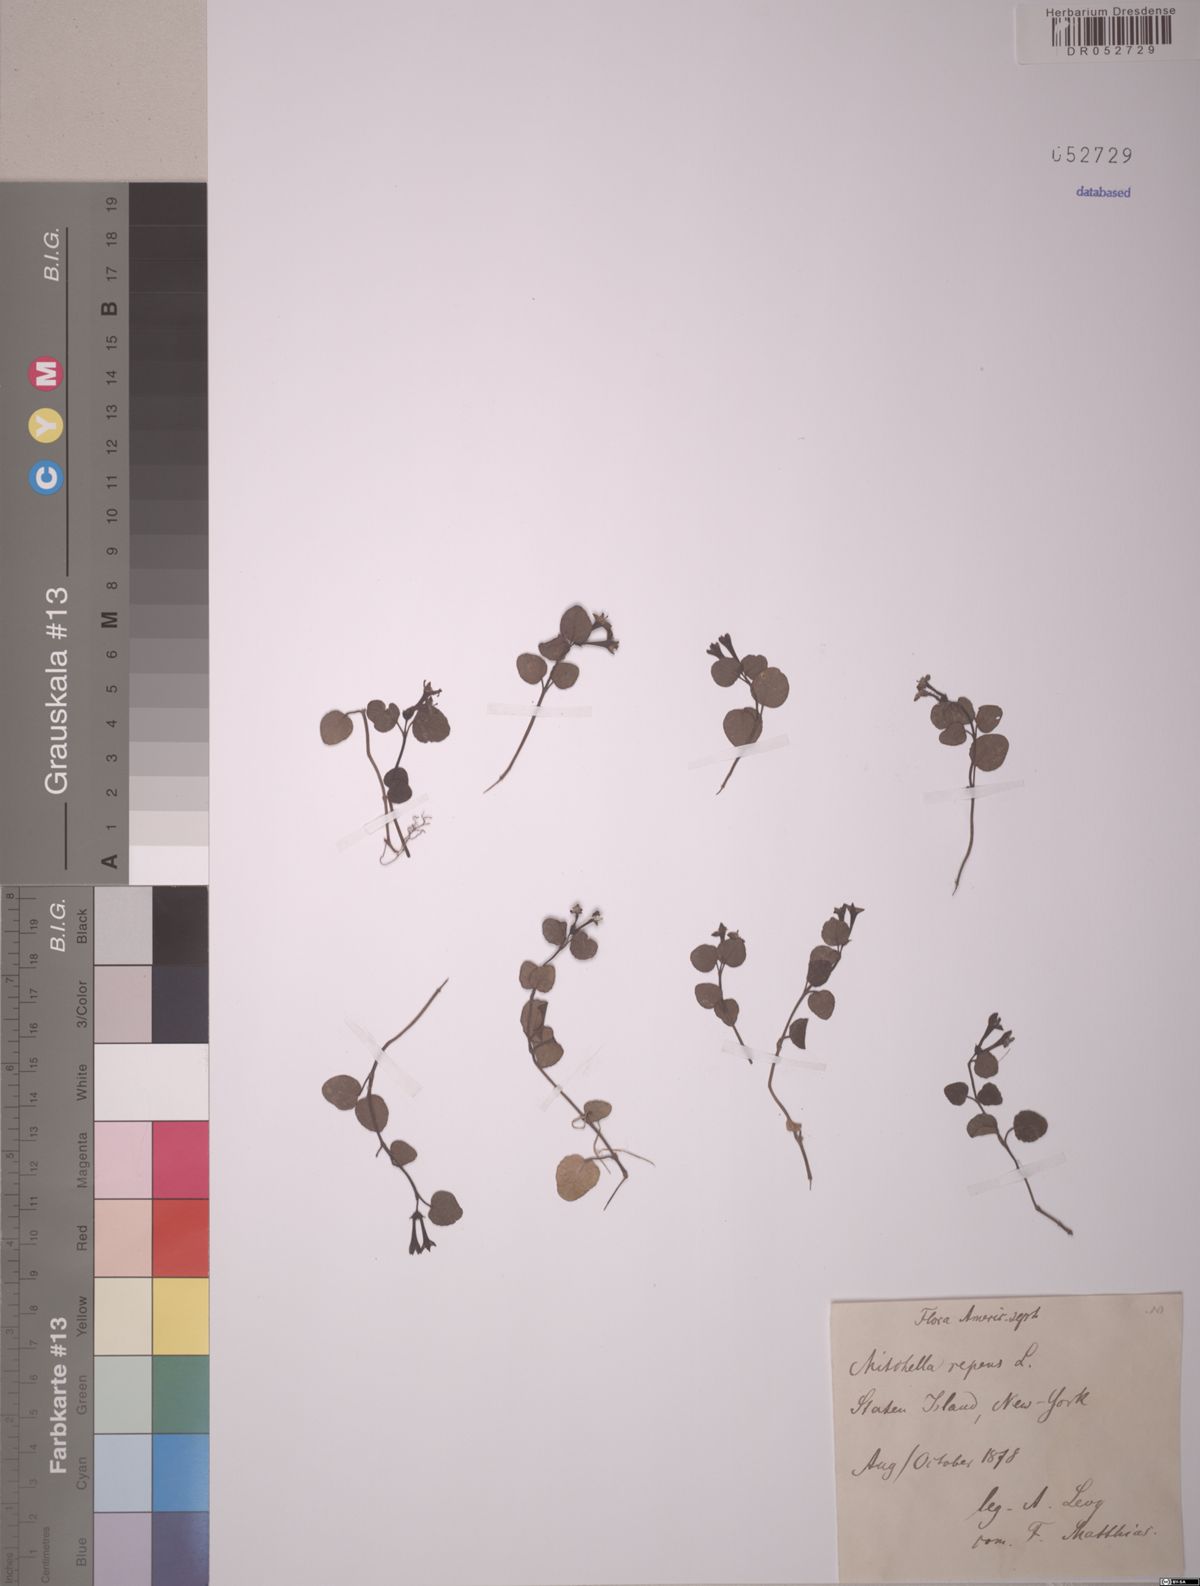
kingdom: Plantae
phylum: Tracheophyta
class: Magnoliopsida
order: Gentianales
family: Rubiaceae
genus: Mitchella
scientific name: Mitchella repens
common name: Partridge-berry
